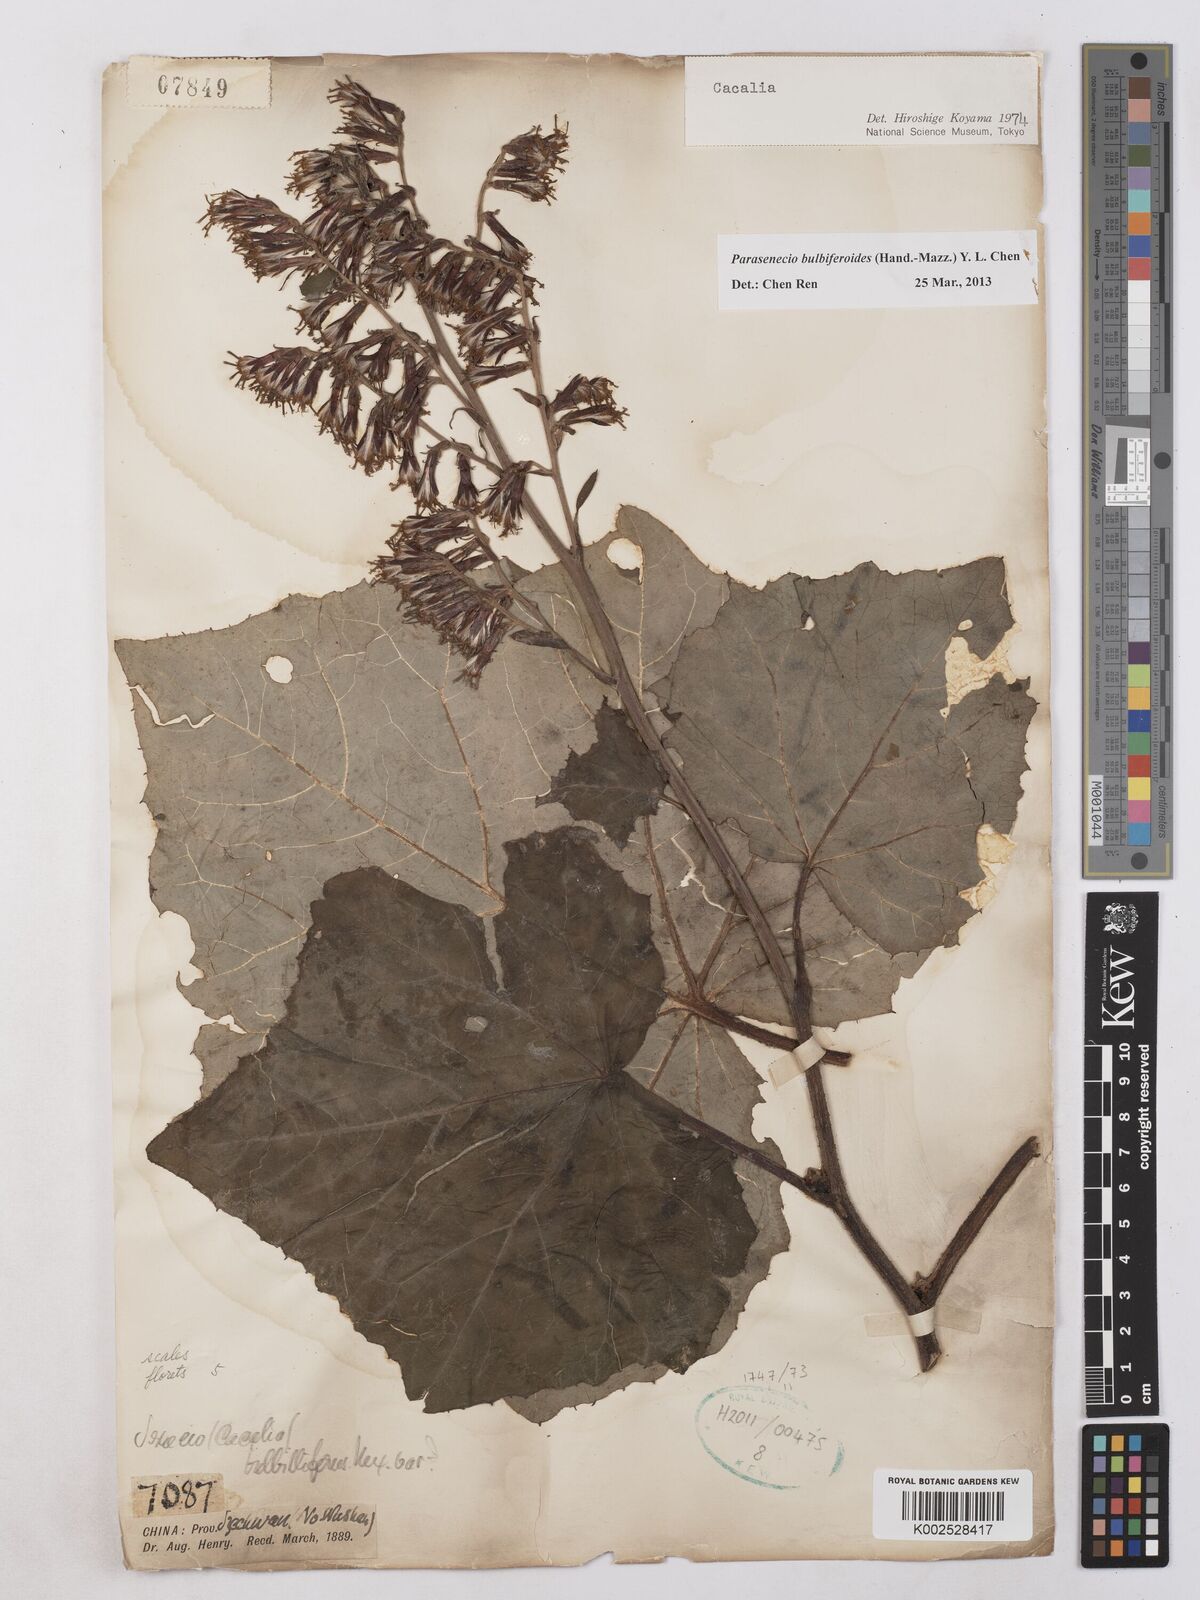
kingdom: Plantae
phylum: Tracheophyta
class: Magnoliopsida
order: Asterales
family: Asteraceae
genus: Parasenecio
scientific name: Parasenecio bulbiferoides
